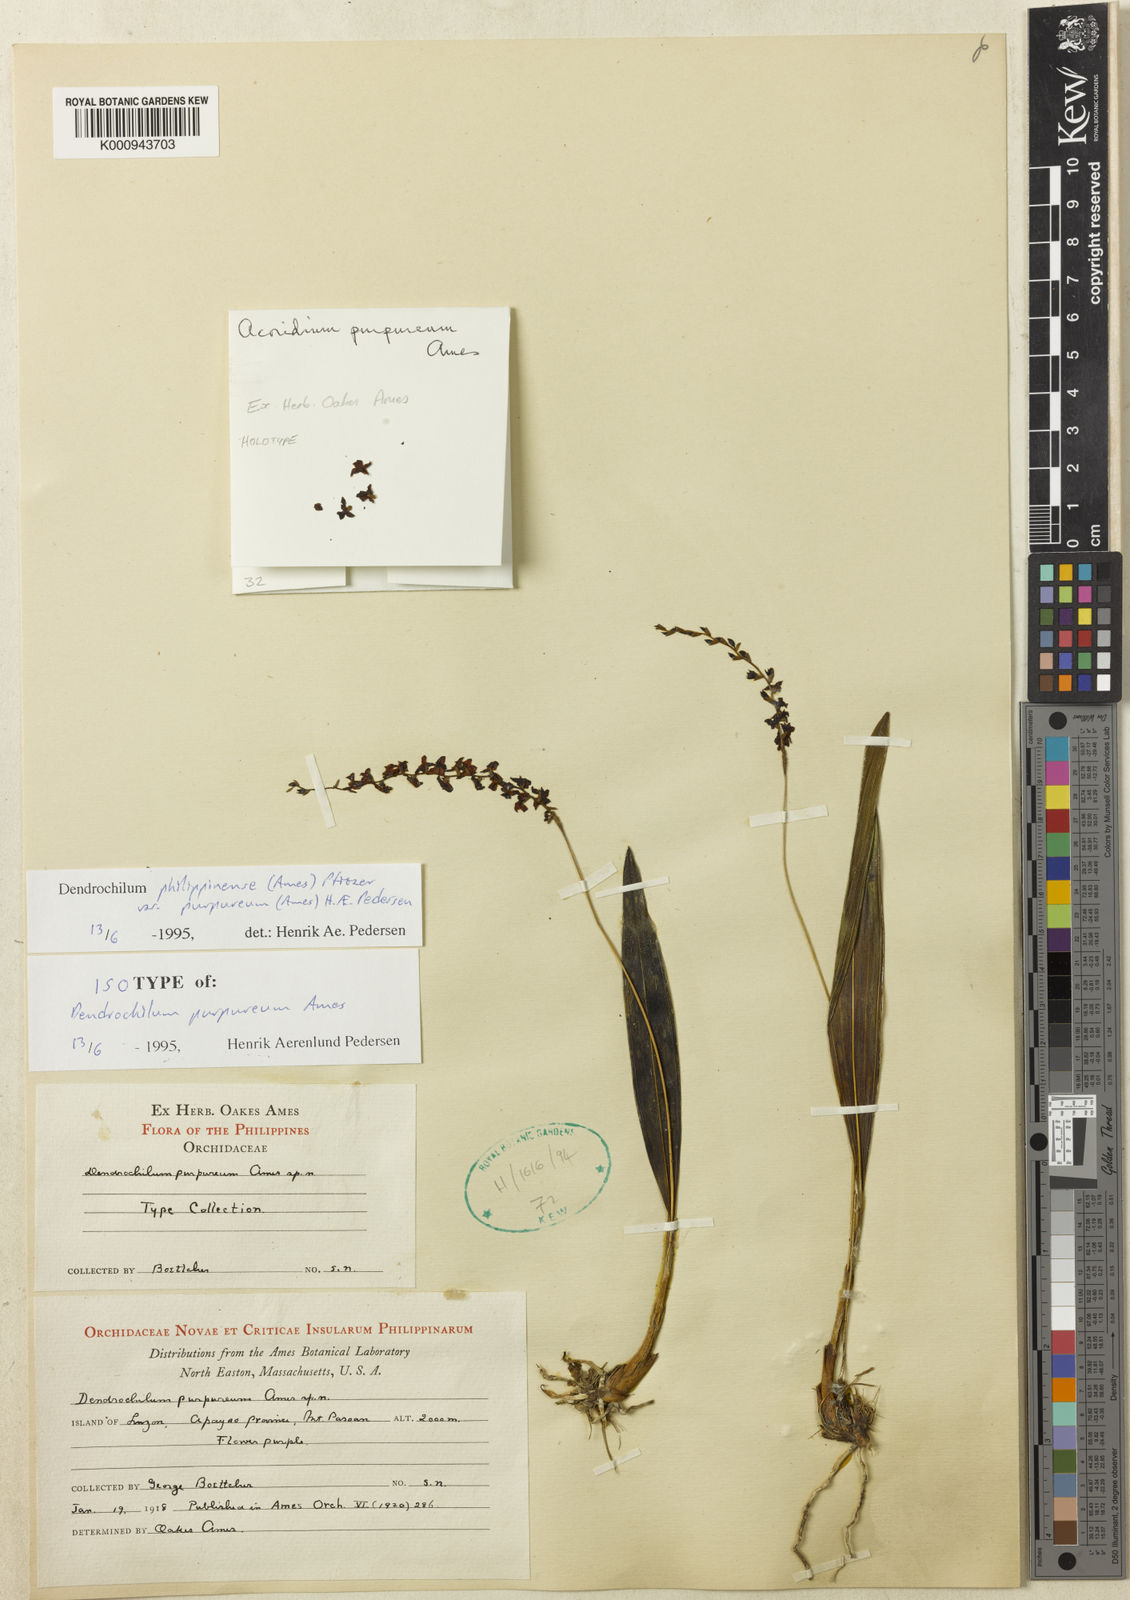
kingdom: Plantae
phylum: Tracheophyta
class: Liliopsida
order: Asparagales
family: Orchidaceae
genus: Coelogyne
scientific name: Coelogyne philippinensis
